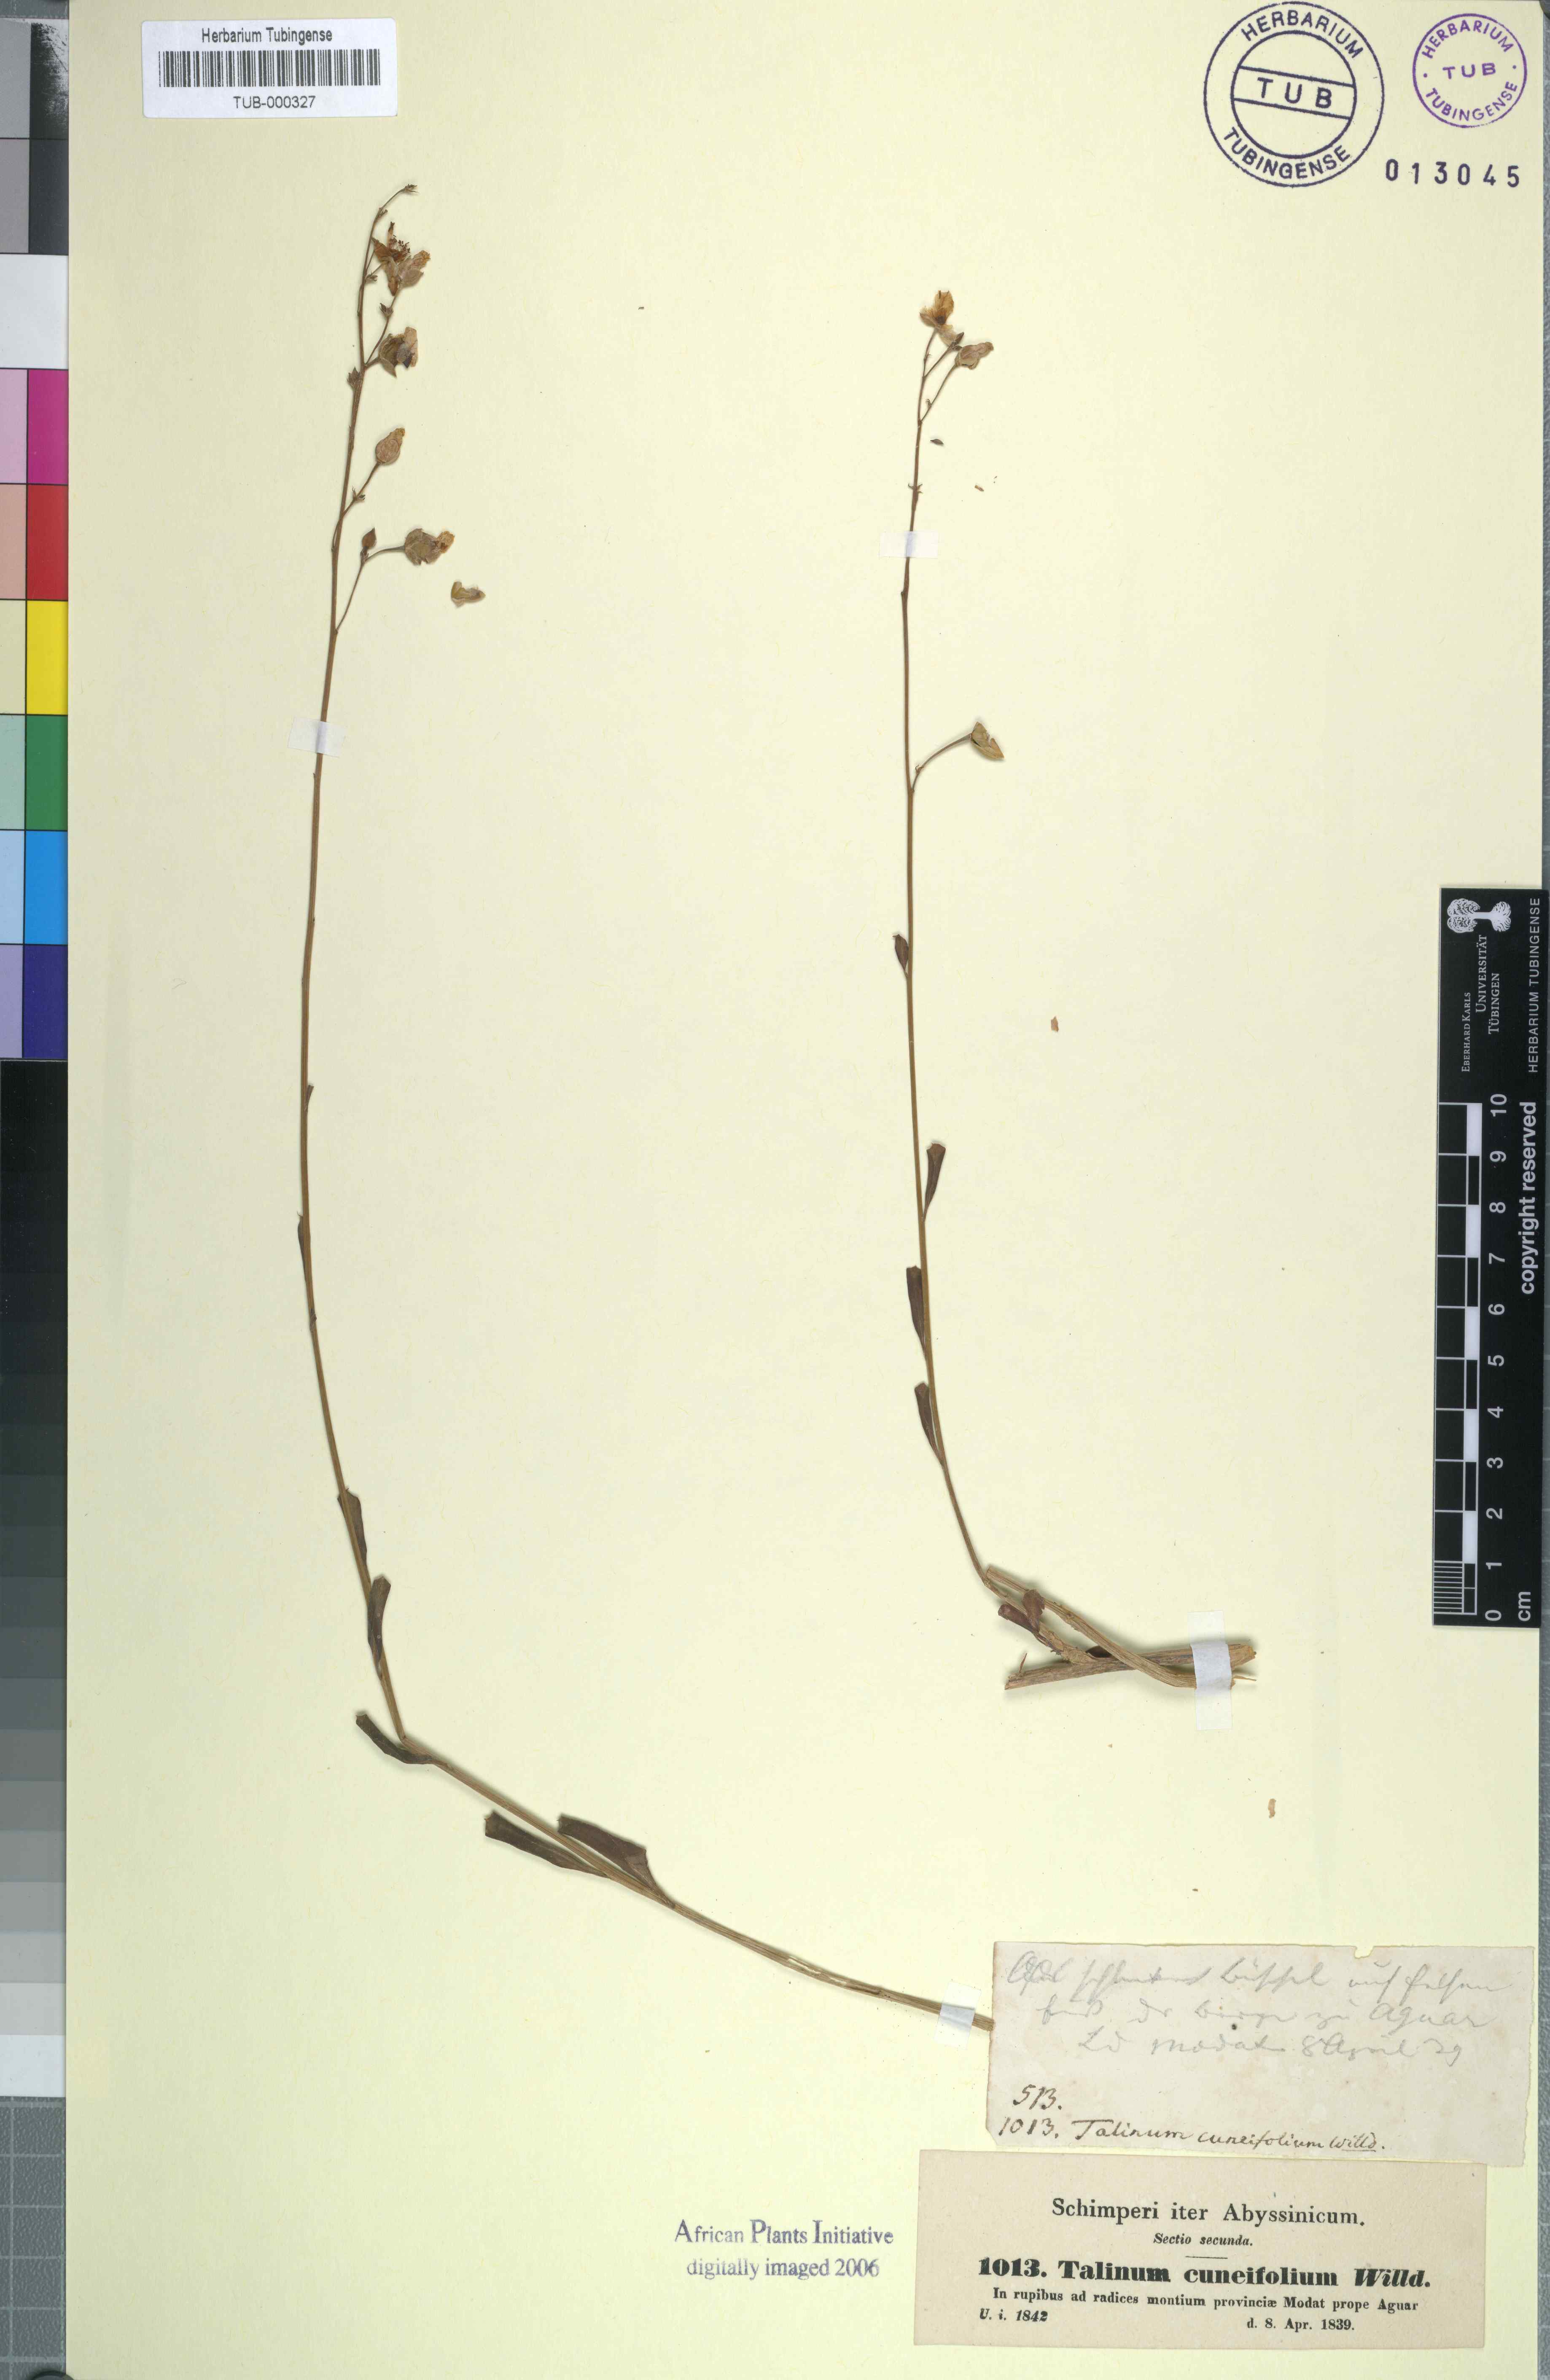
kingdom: Plantae
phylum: Tracheophyta
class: Magnoliopsida
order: Caryophyllales
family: Talinaceae
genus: Talinum
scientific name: Talinum portulacifolium
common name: Flameflower
